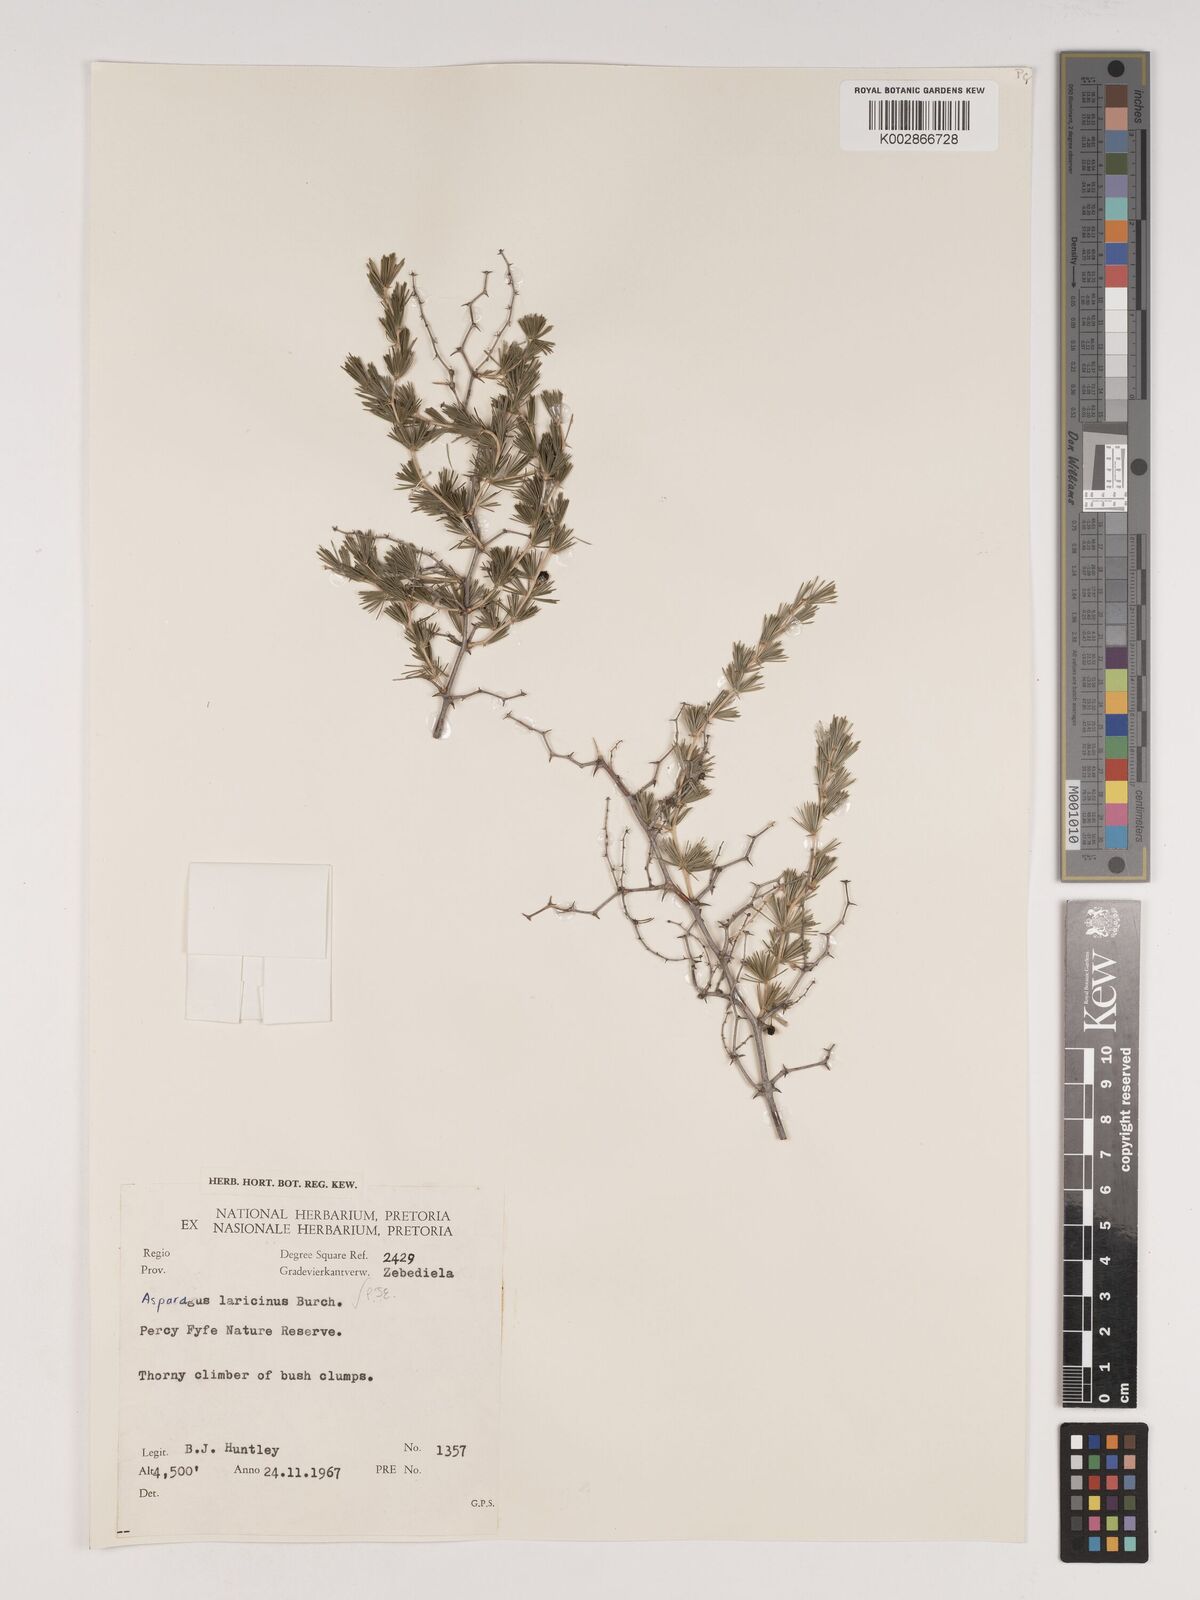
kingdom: Plantae
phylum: Tracheophyta
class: Liliopsida
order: Asparagales
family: Asparagaceae
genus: Asparagus
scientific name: Asparagus laricinus
